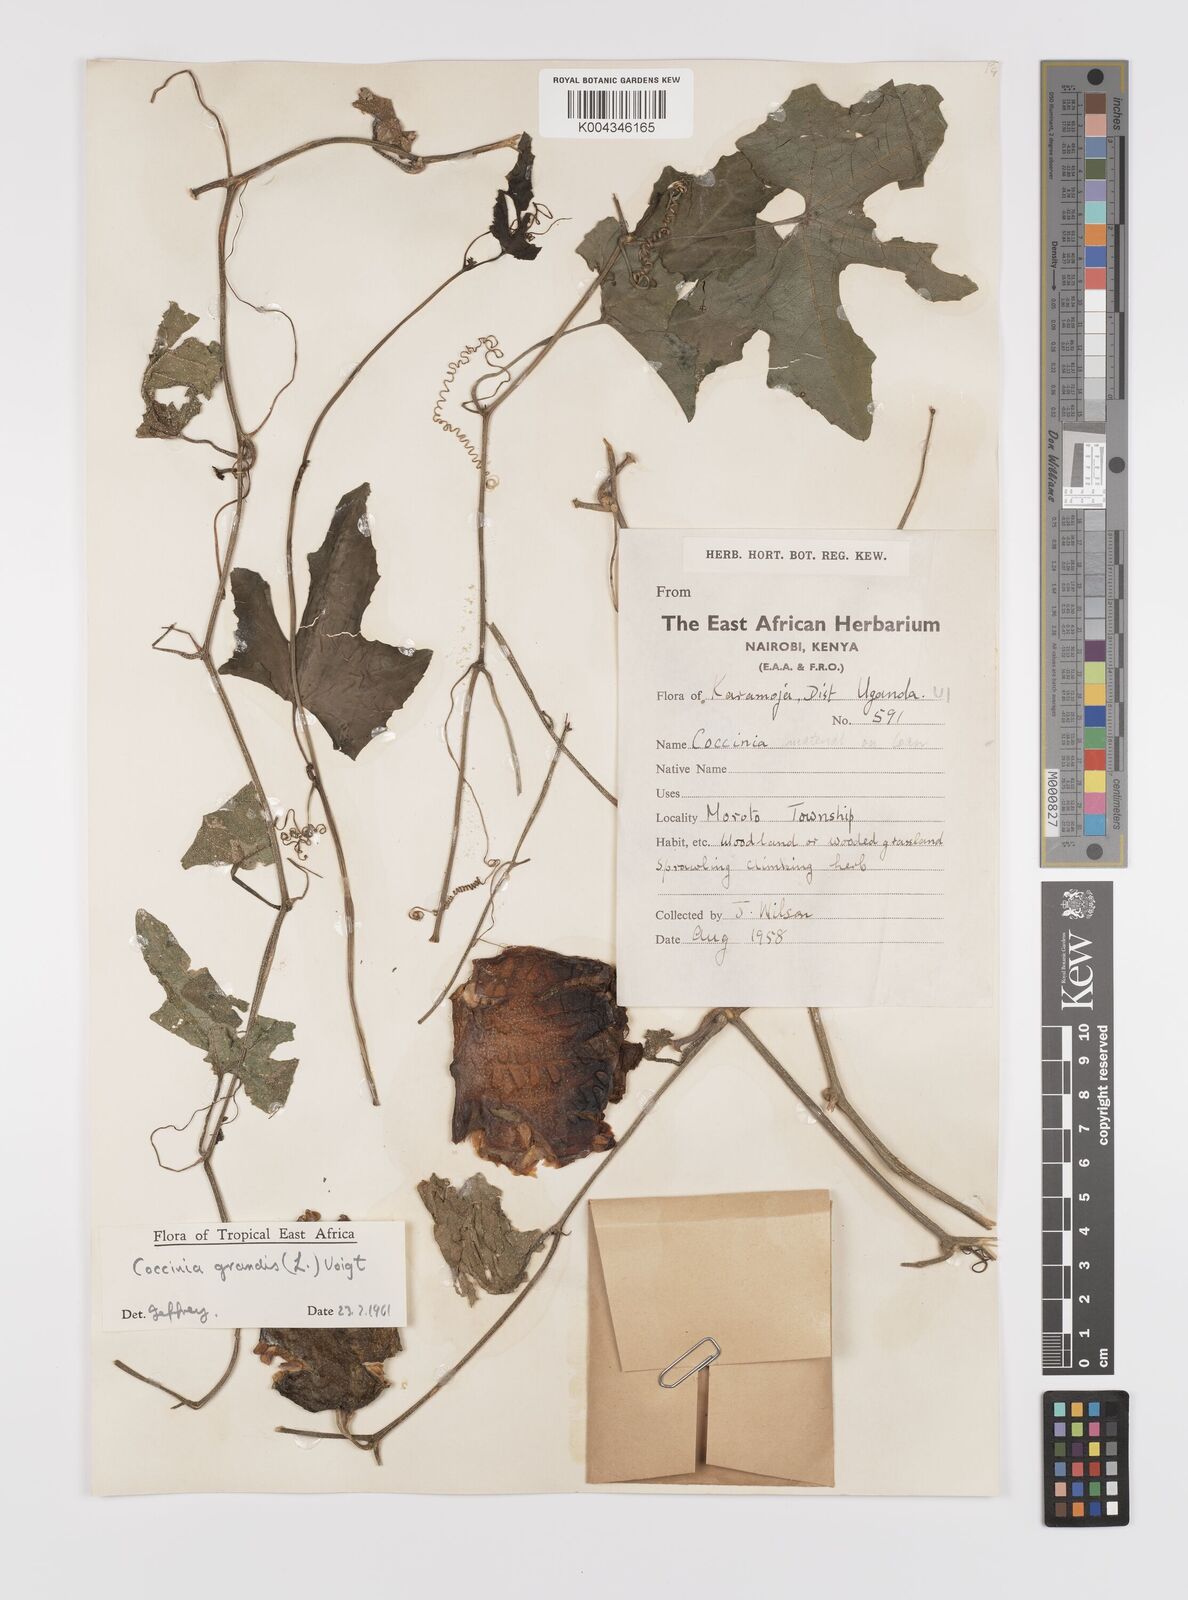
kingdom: Plantae
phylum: Tracheophyta
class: Magnoliopsida
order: Cucurbitales
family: Cucurbitaceae
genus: Coccinia
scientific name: Coccinia grandis
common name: Ivy gourd
